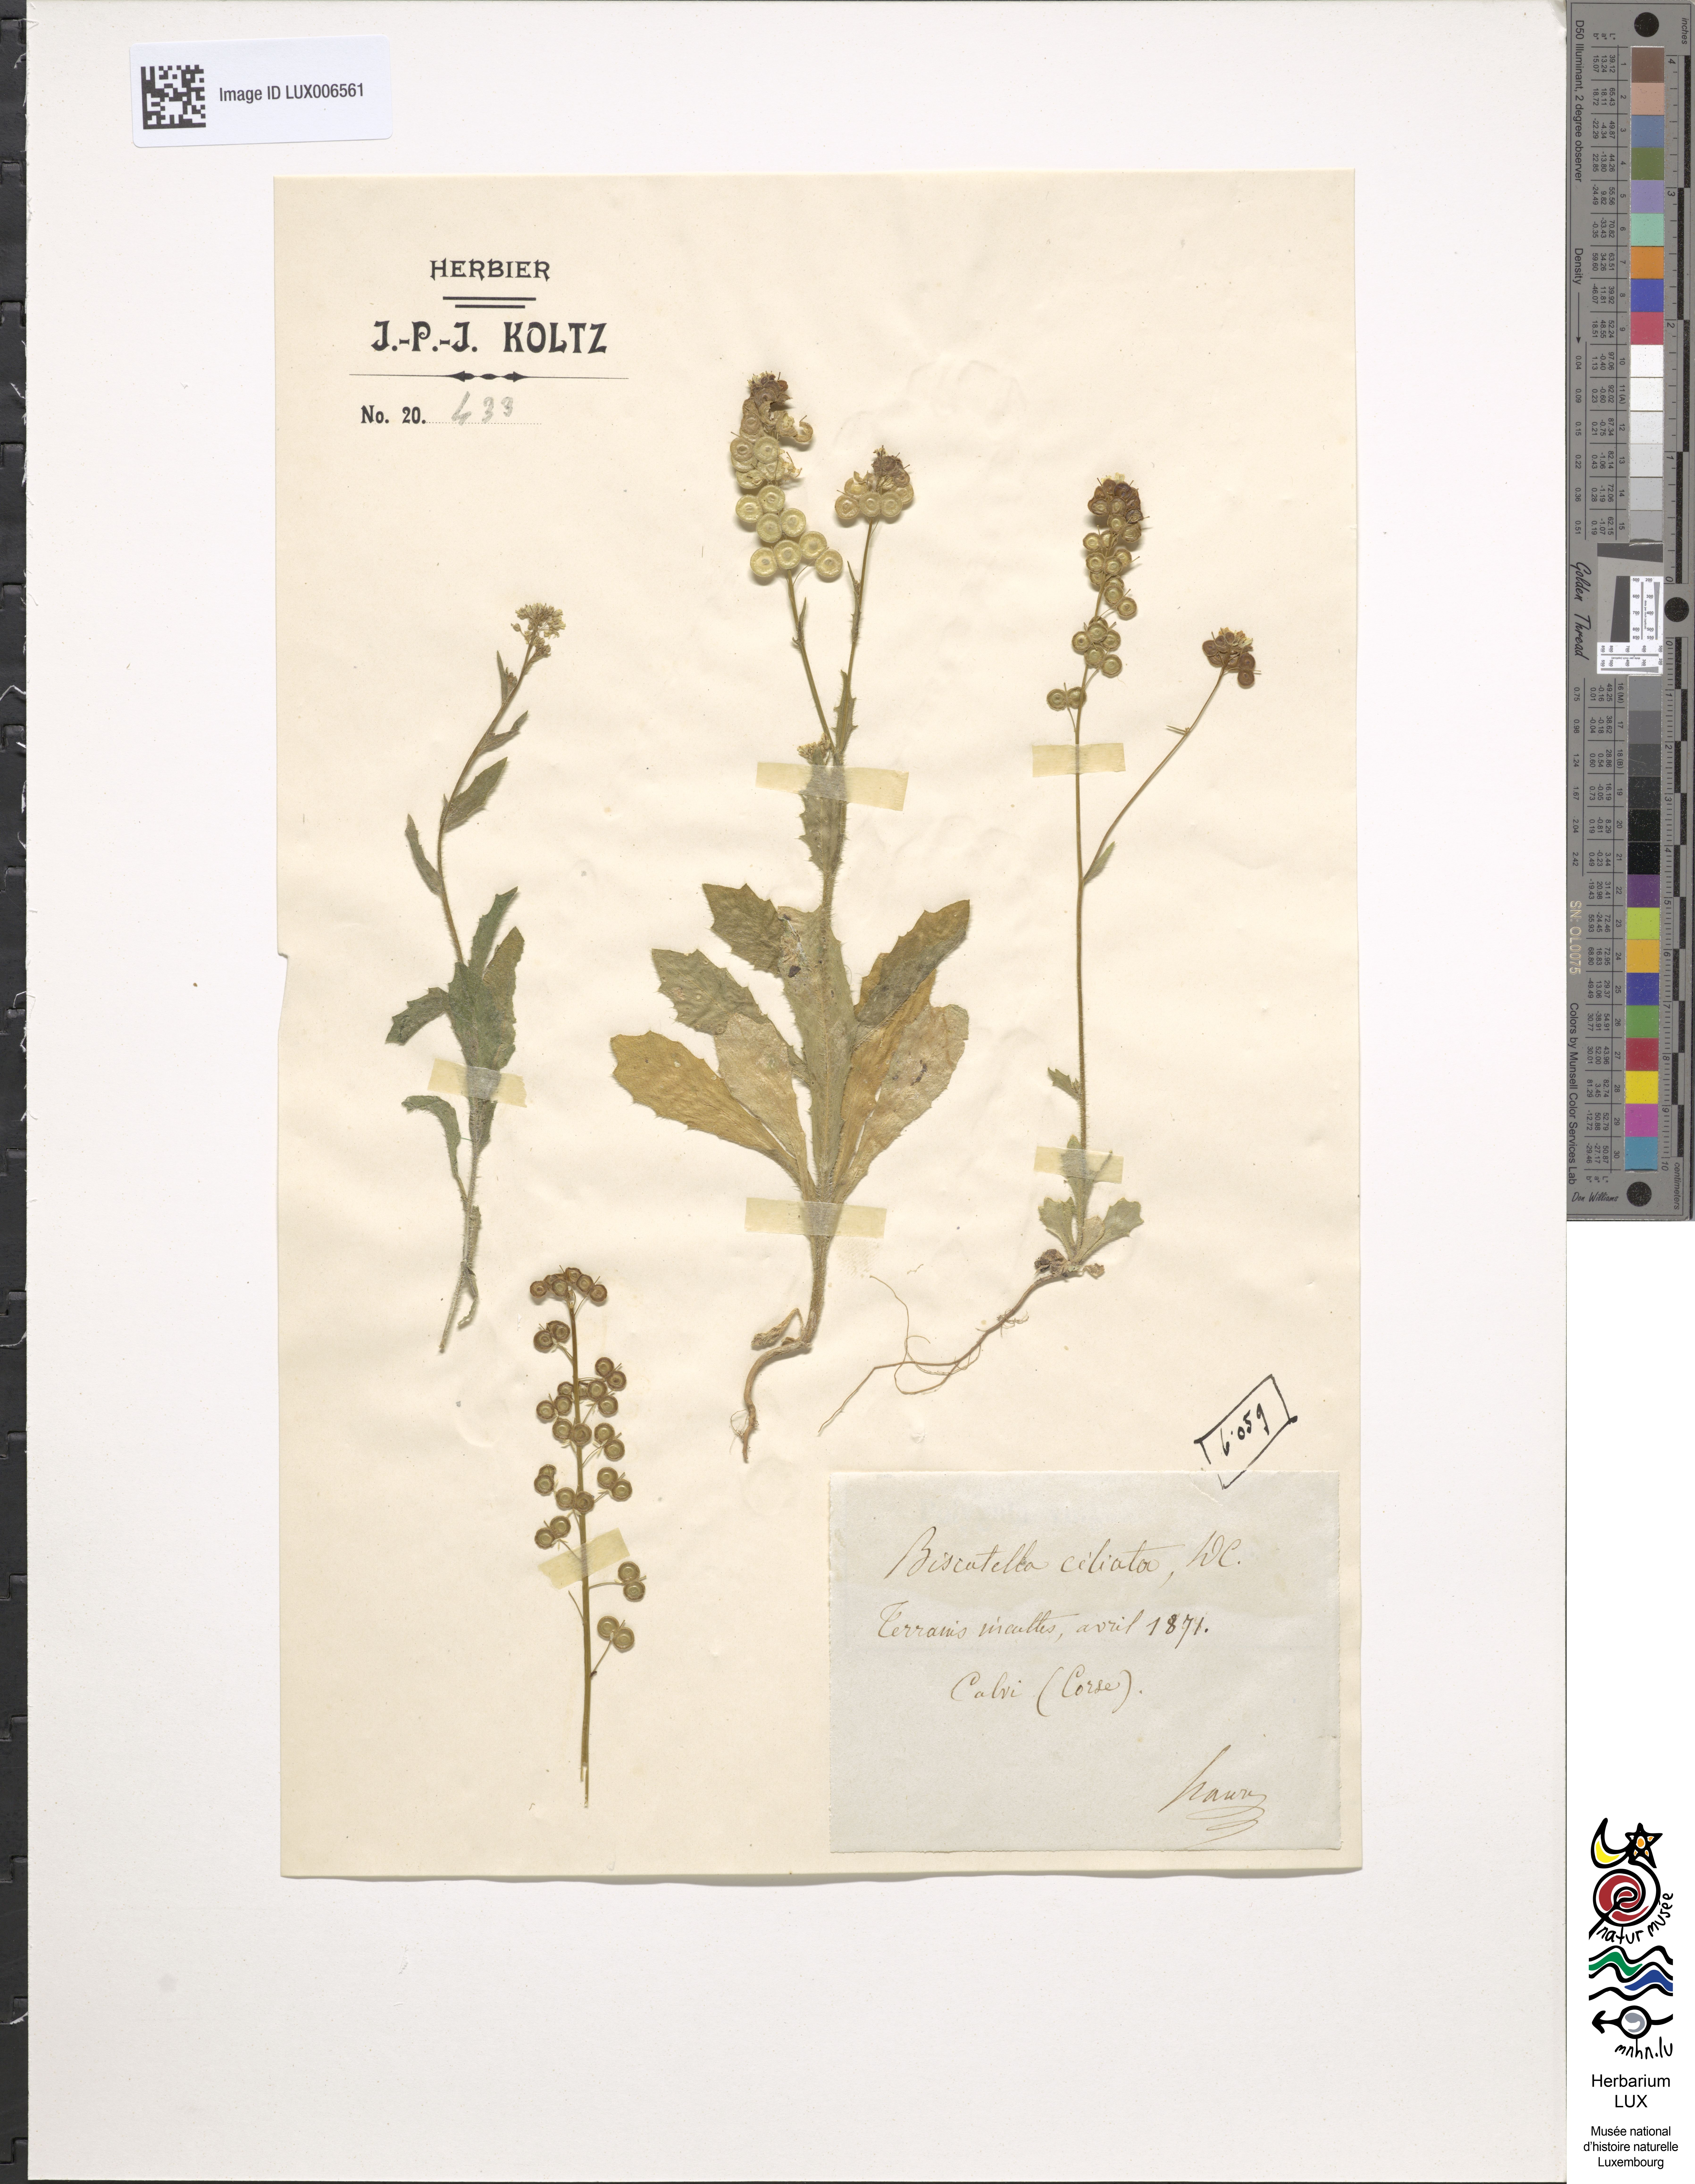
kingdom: Plantae
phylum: Tracheophyta
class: Magnoliopsida
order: Brassicales
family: Brassicaceae
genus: Biscutella
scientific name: Biscutella didyma
